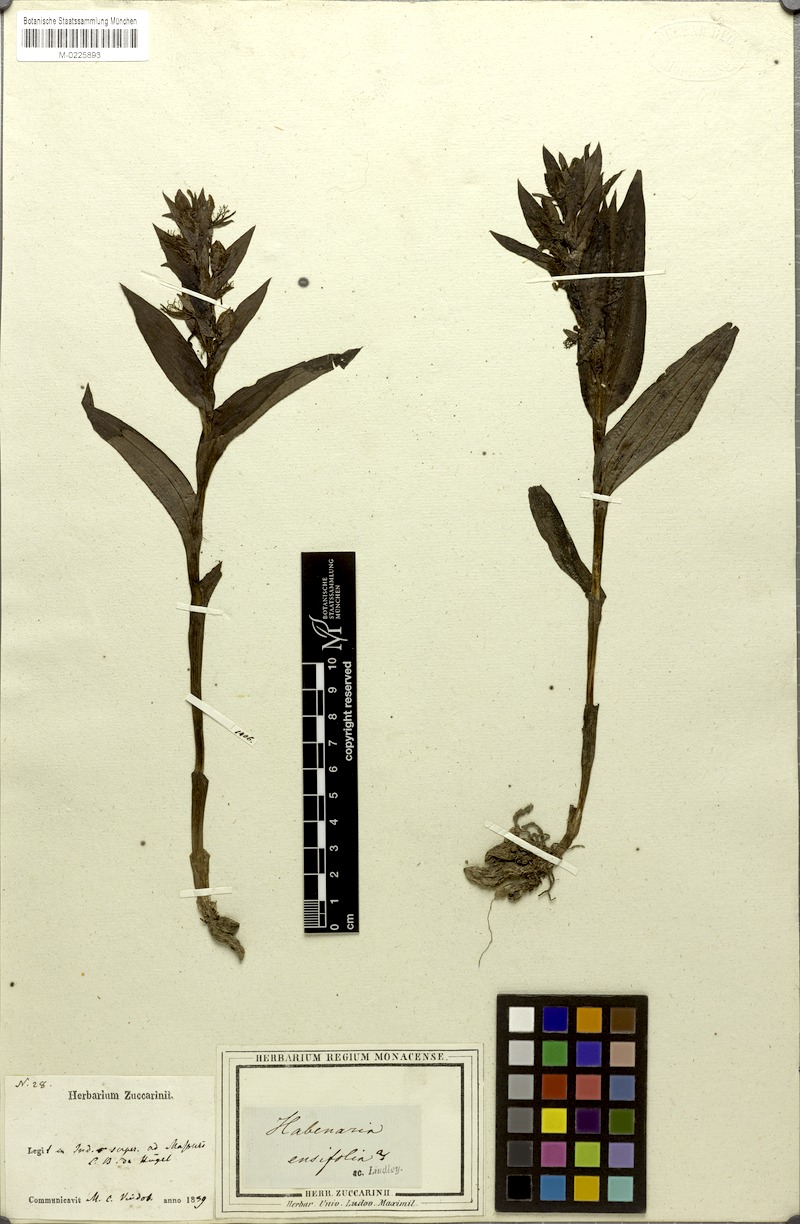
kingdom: Plantae
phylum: Tracheophyta
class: Liliopsida
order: Asparagales
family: Orchidaceae
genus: Habenaria
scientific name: Habenaria pectinata
